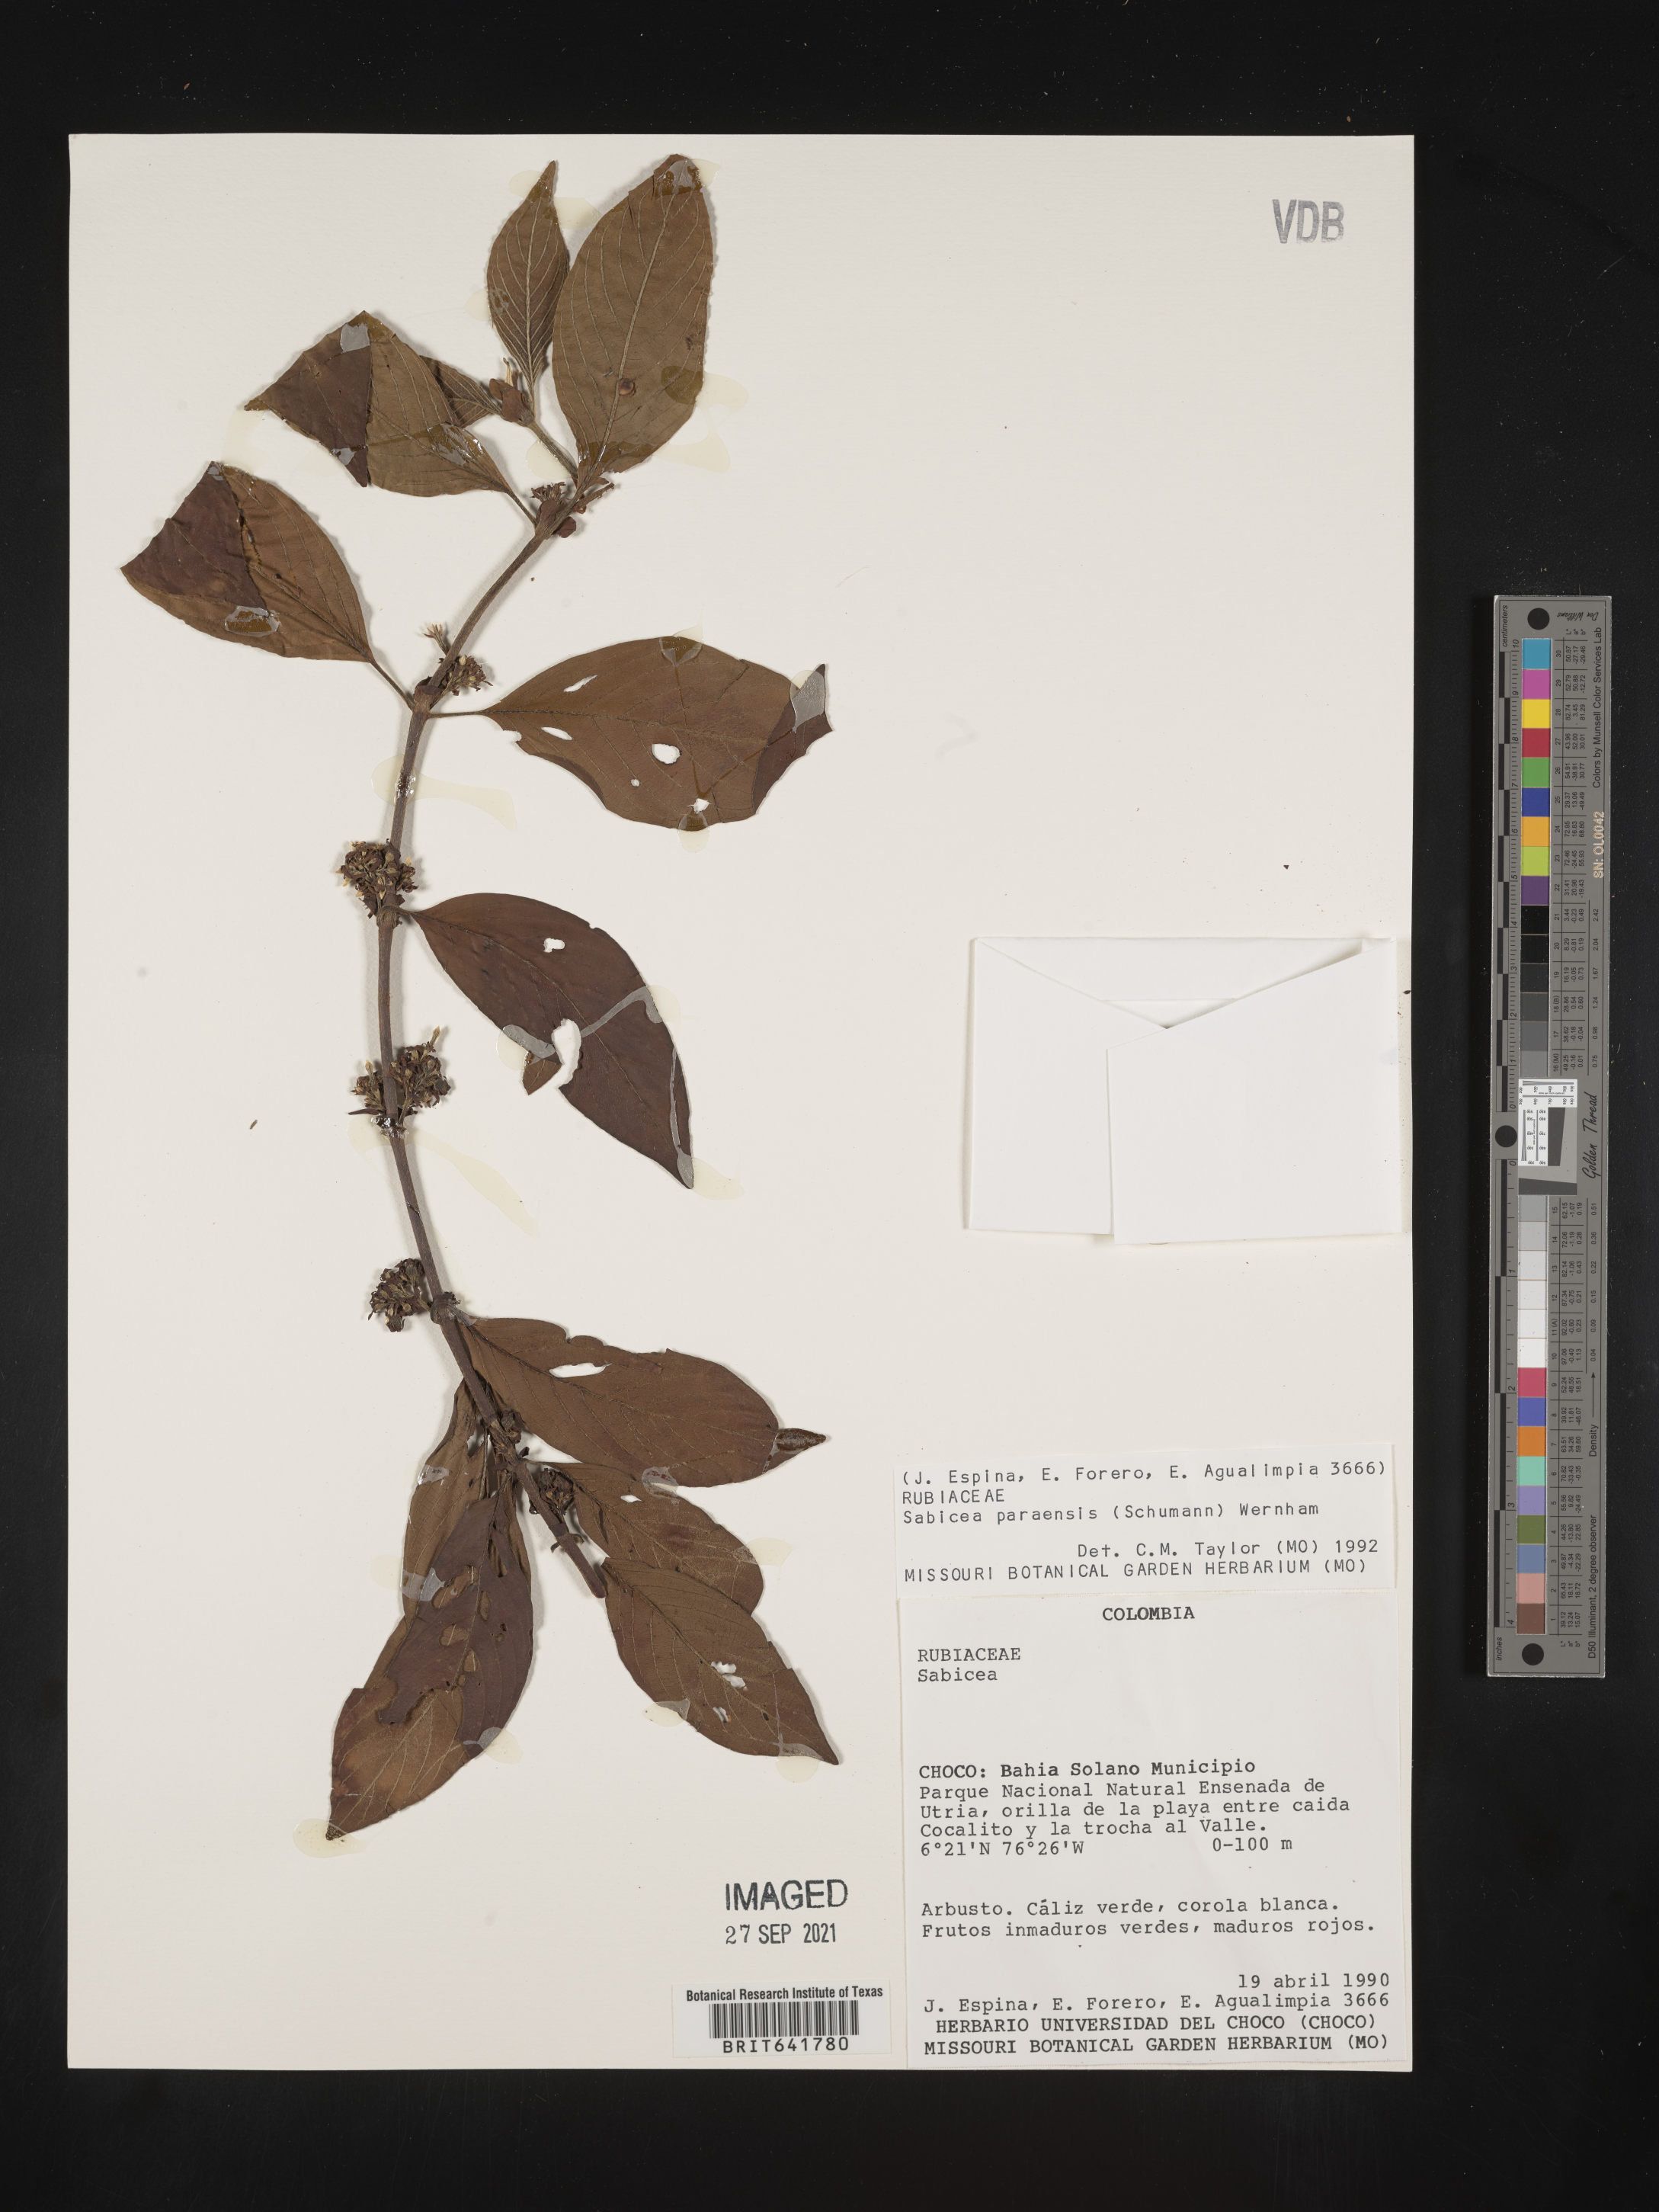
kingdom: Plantae
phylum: Tracheophyta
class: Magnoliopsida
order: Gentianales
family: Rubiaceae
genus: Sabicea
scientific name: Sabicea
